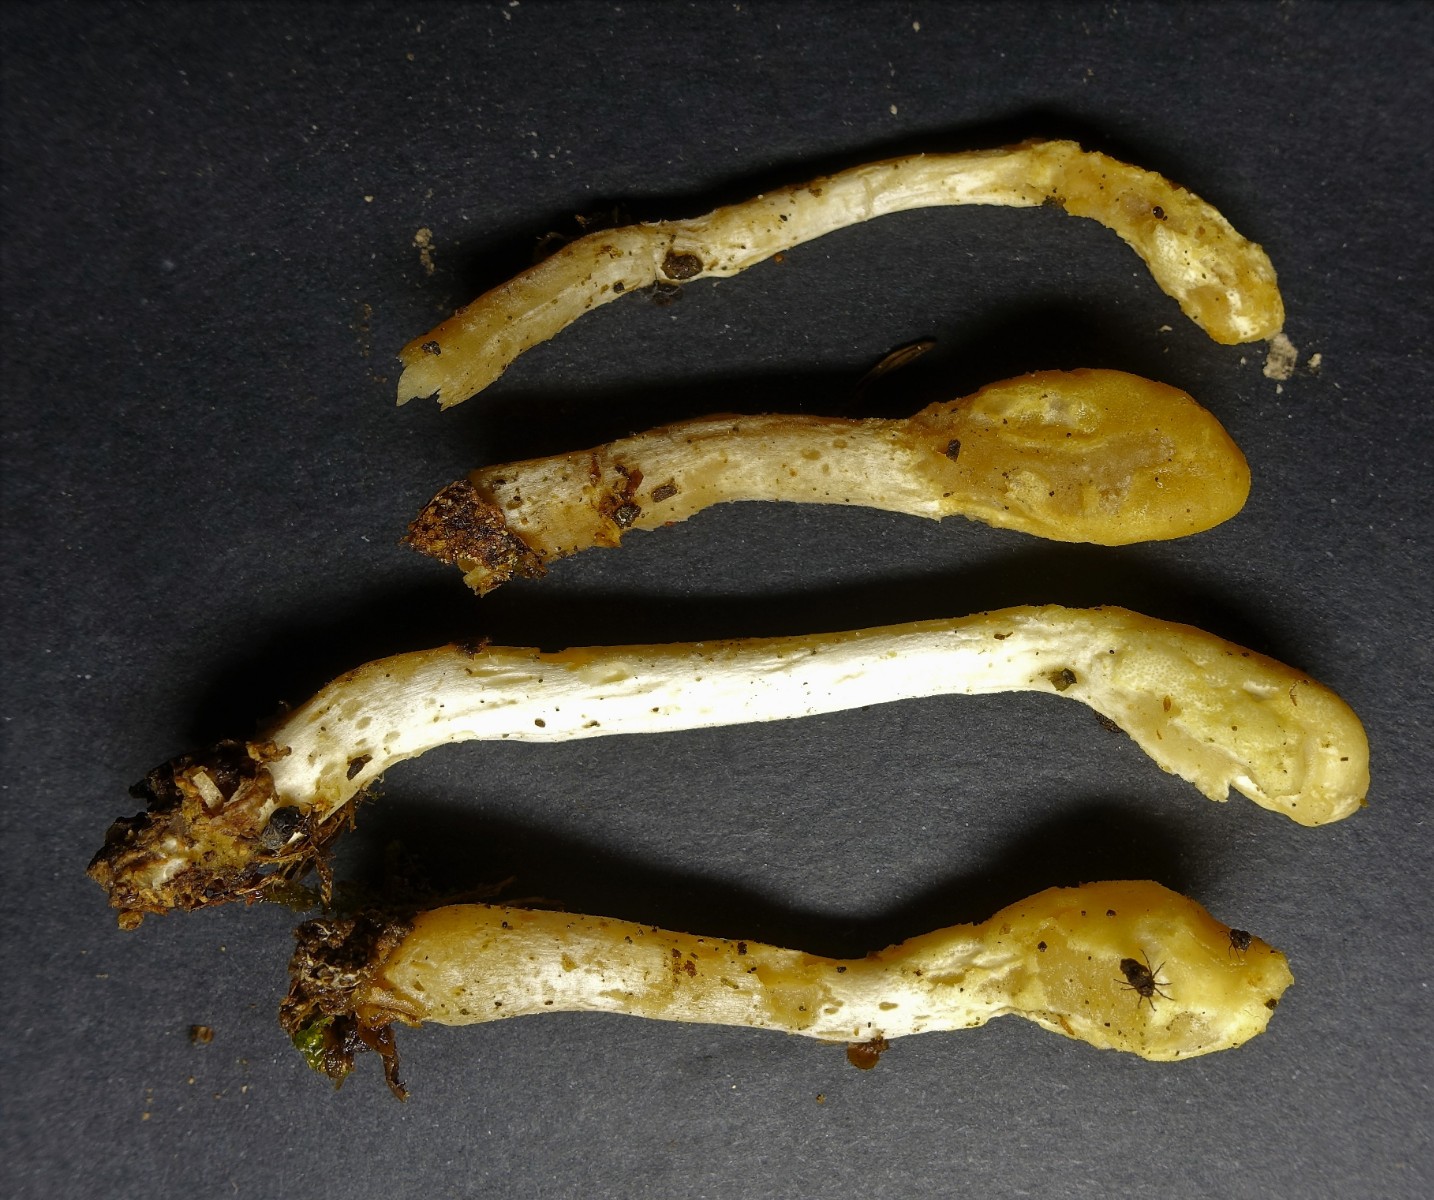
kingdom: Fungi
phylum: Ascomycota
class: Sordariomycetes
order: Hypocreales
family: Hypocreaceae
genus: Trichoderma
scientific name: Trichoderma leucopus
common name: lysstokket kødkerne
